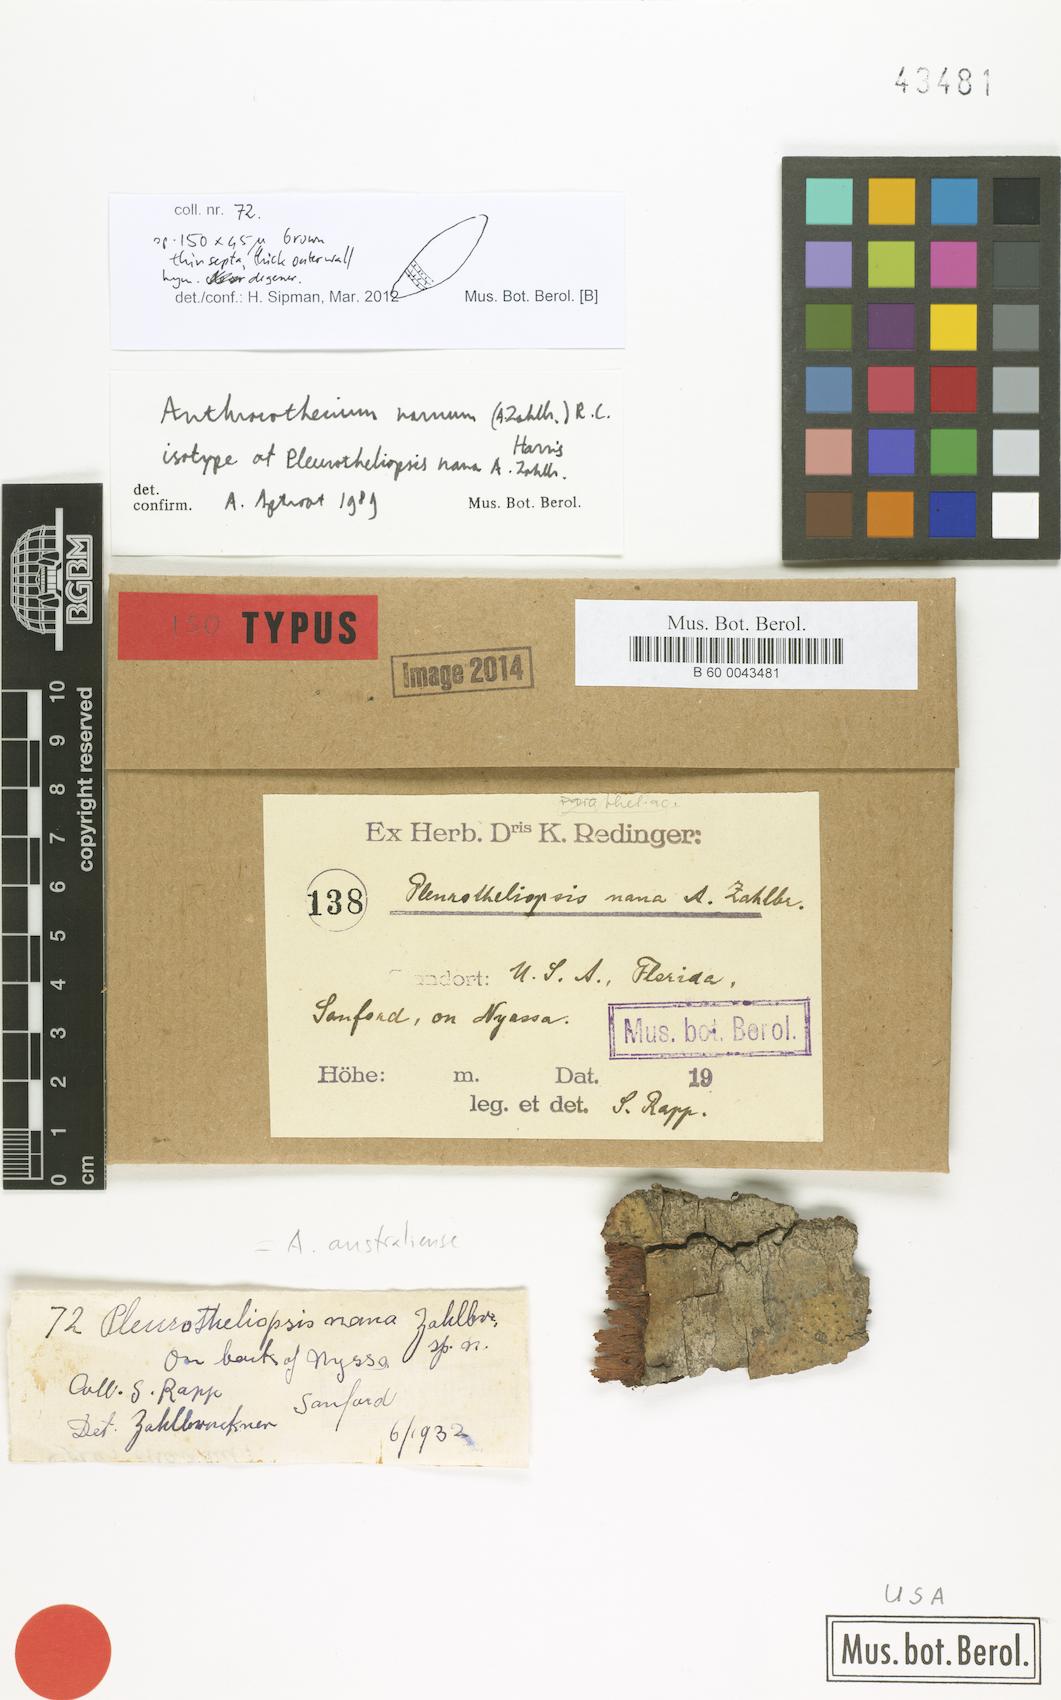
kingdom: Fungi
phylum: Ascomycota
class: Eurotiomycetes
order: Pyrenulales
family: Pyrenulaceae
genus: Anthracothecium
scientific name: Anthracothecium nanum
